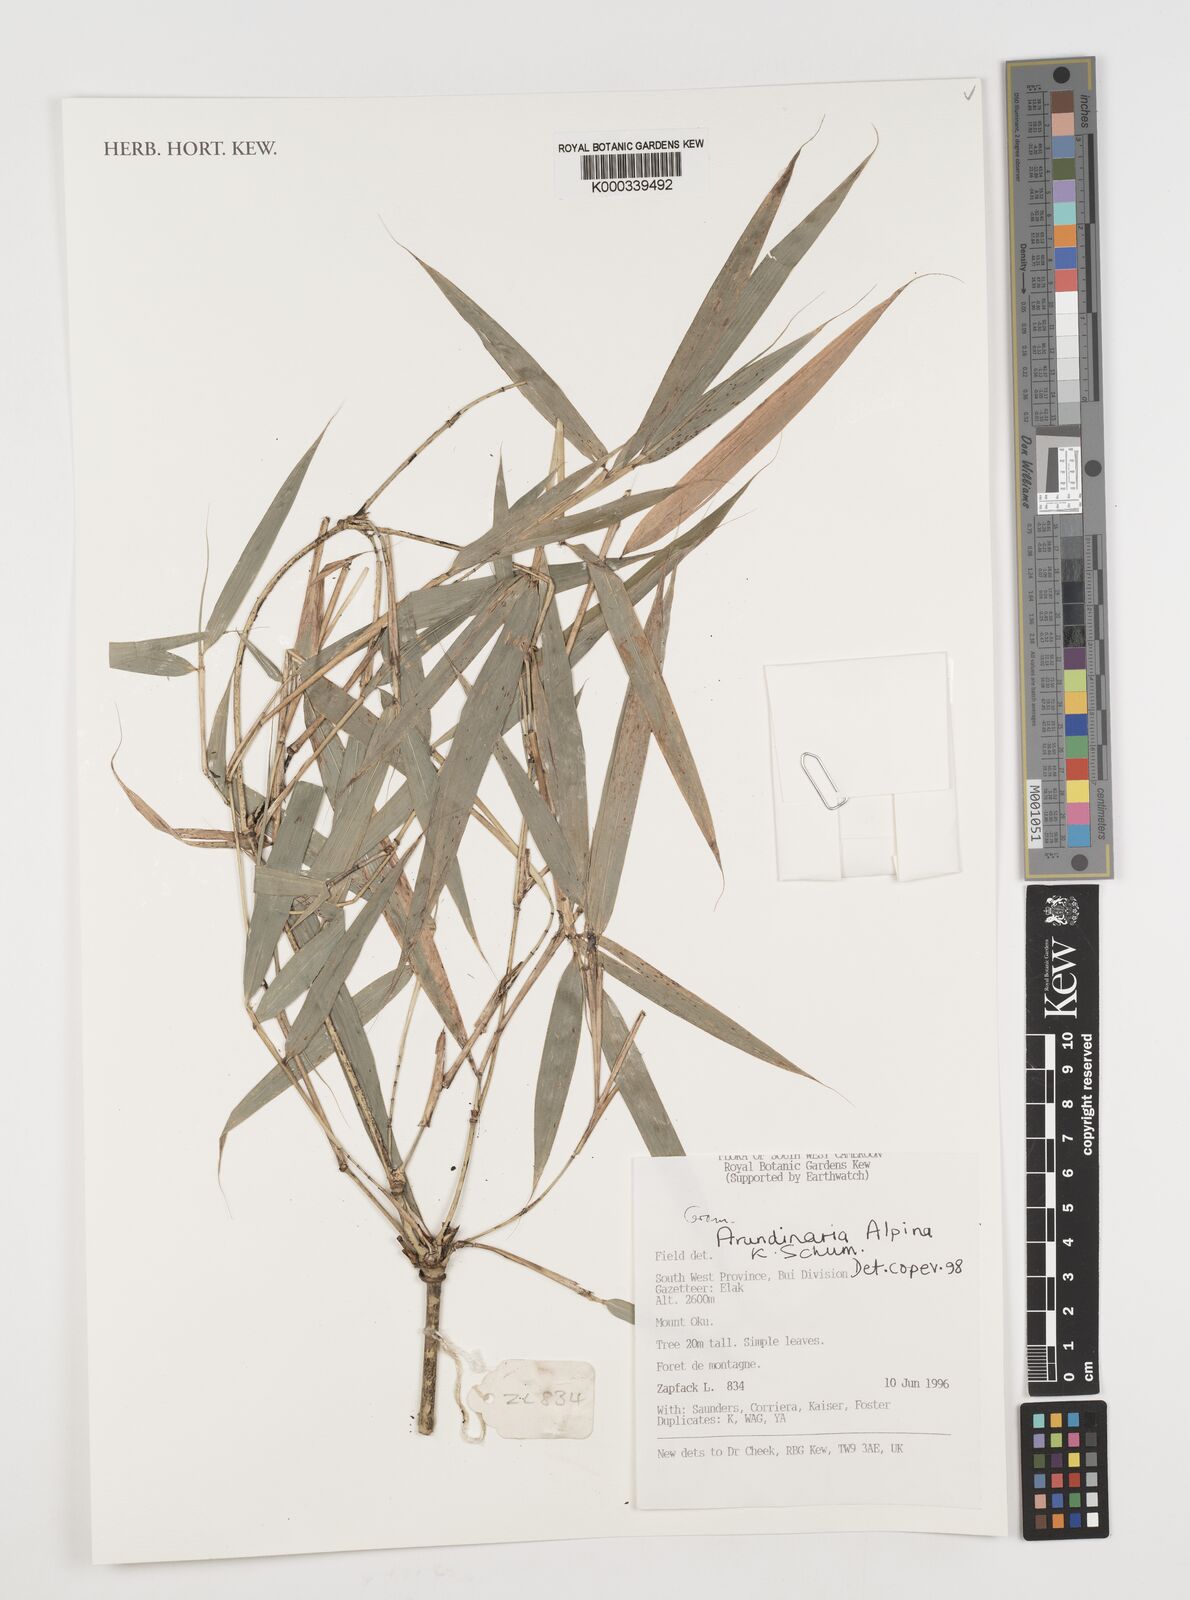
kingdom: Plantae
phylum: Tracheophyta
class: Liliopsida
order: Poales
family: Poaceae
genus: Oldeania
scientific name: Oldeania alpina
